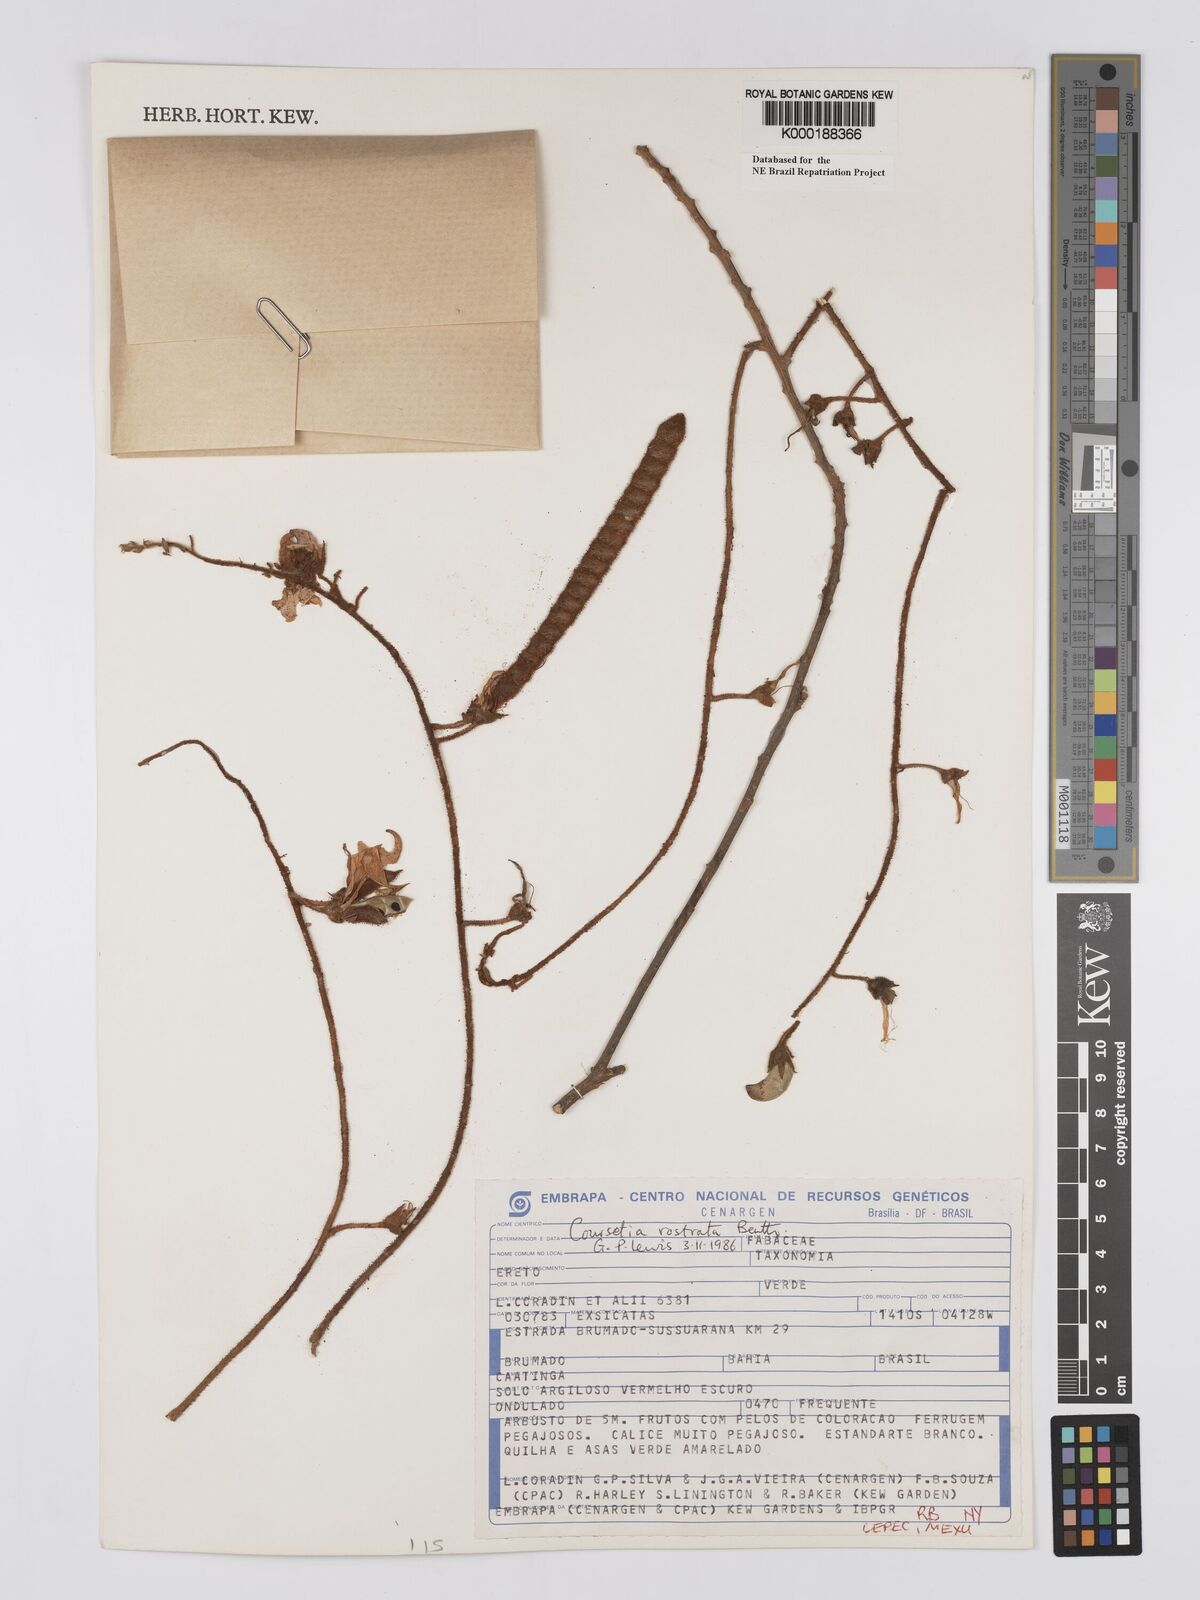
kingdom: Plantae
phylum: Tracheophyta
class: Magnoliopsida
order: Fabales
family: Fabaceae
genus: Coursetia
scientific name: Coursetia rostrata
